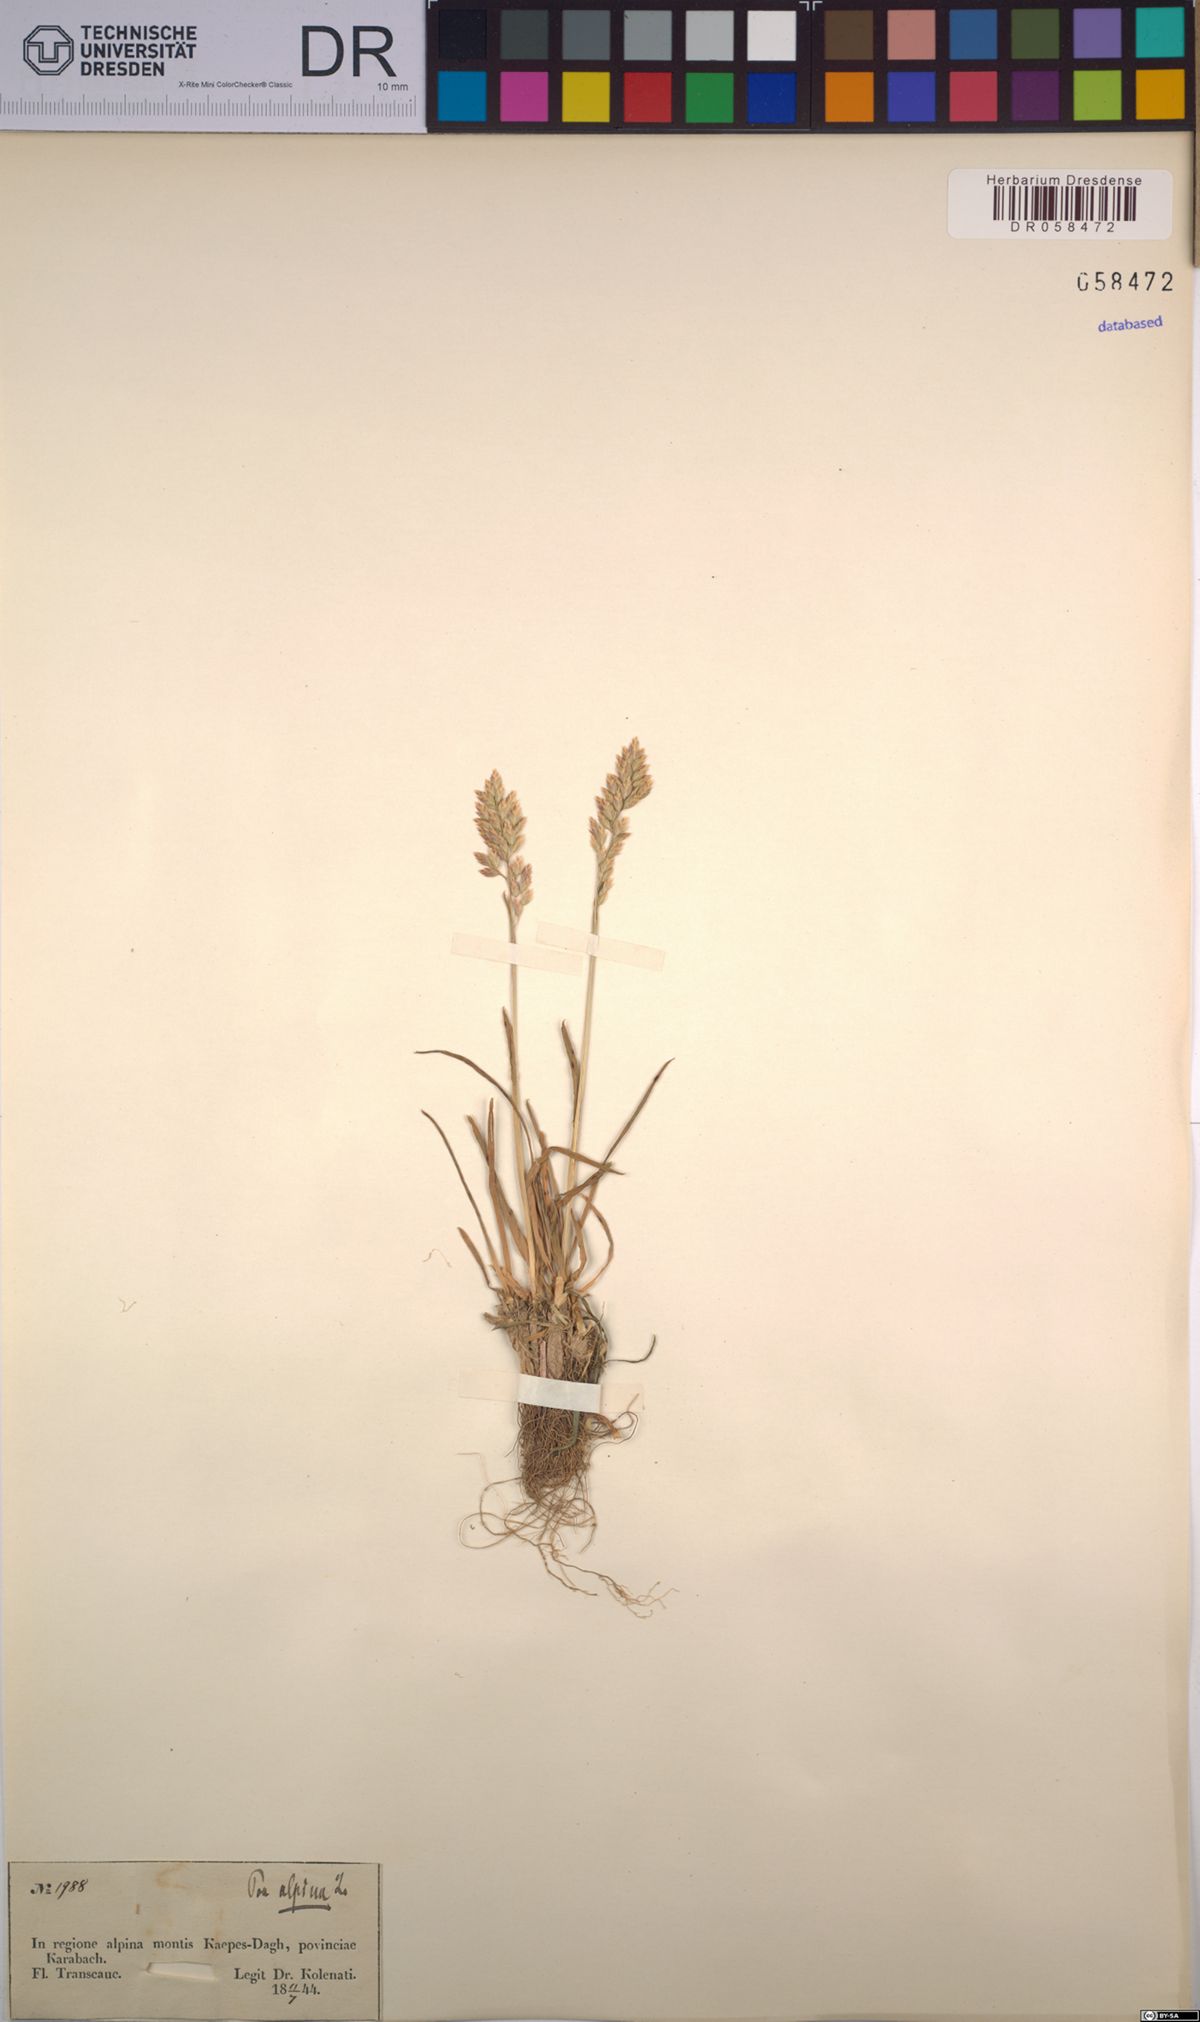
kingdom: Plantae
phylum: Tracheophyta
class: Liliopsida
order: Poales
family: Poaceae
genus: Poa
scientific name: Poa alpina
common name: Alpine bluegrass
